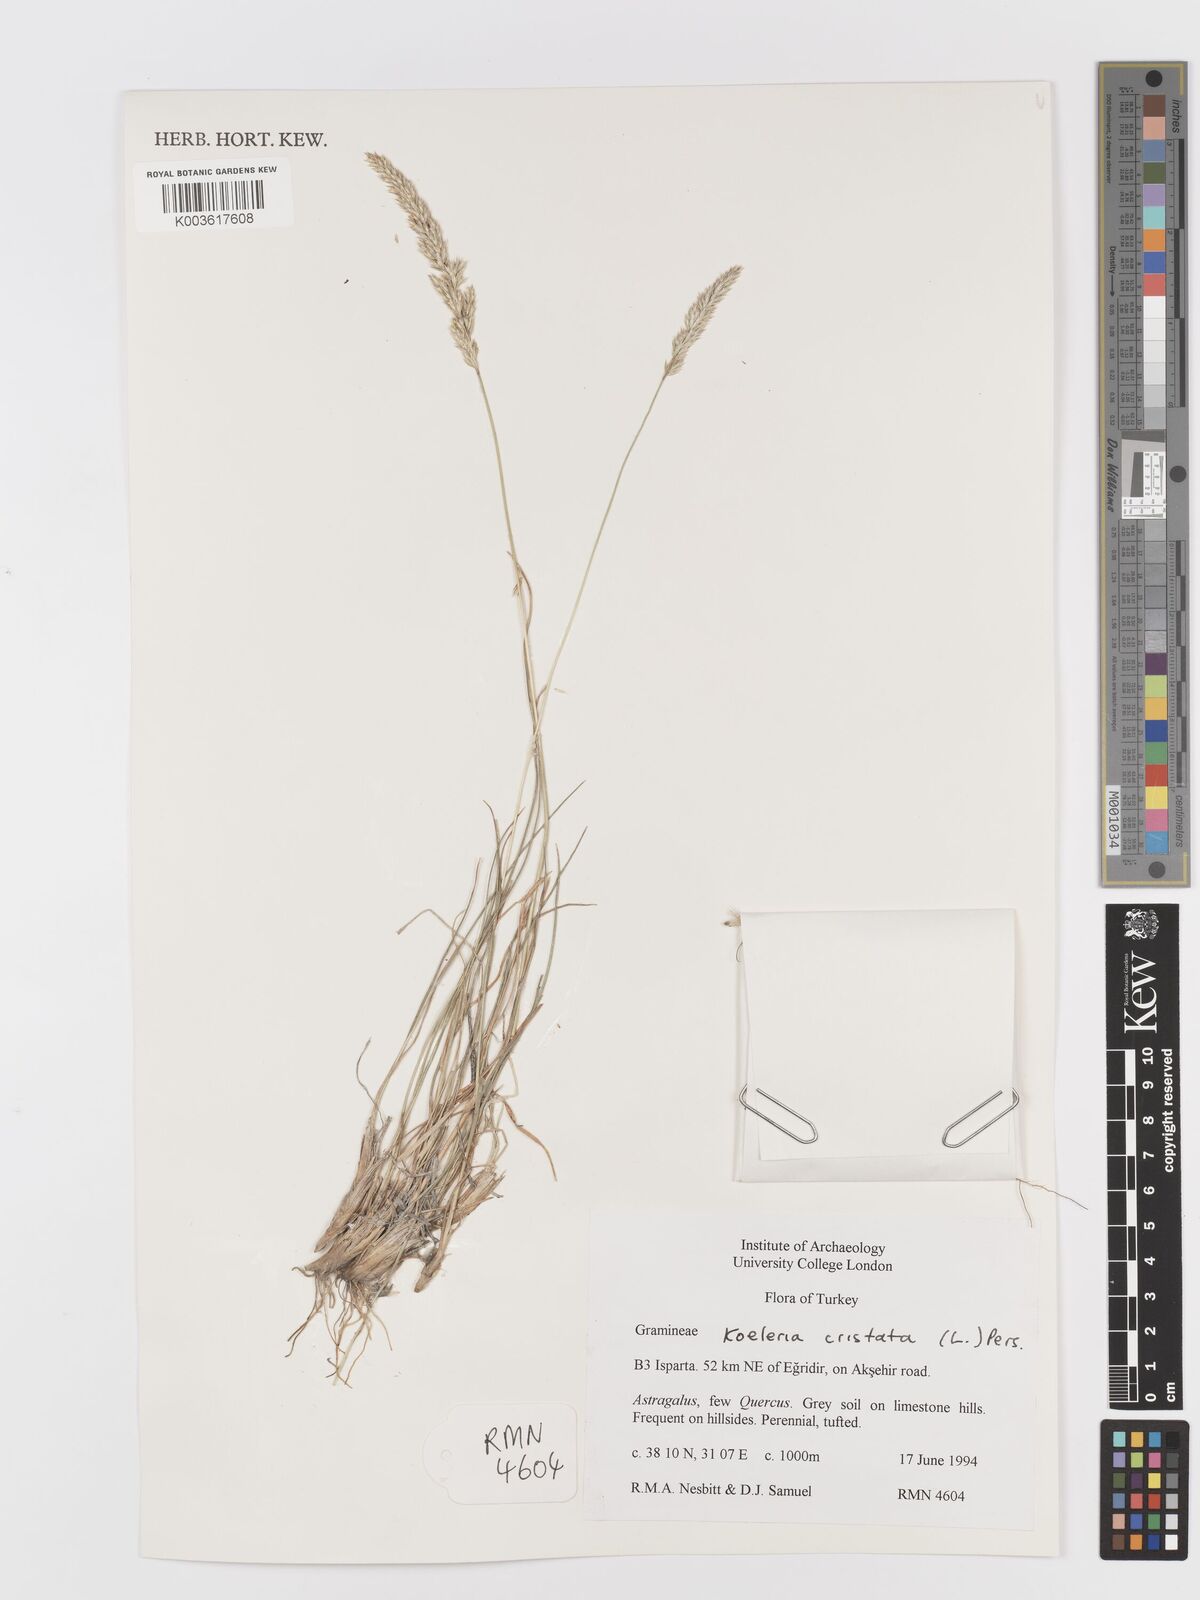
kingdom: Plantae
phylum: Tracheophyta
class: Liliopsida
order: Poales
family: Poaceae
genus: Koeleria
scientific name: Koeleria macrantha
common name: Crested hair-grass
